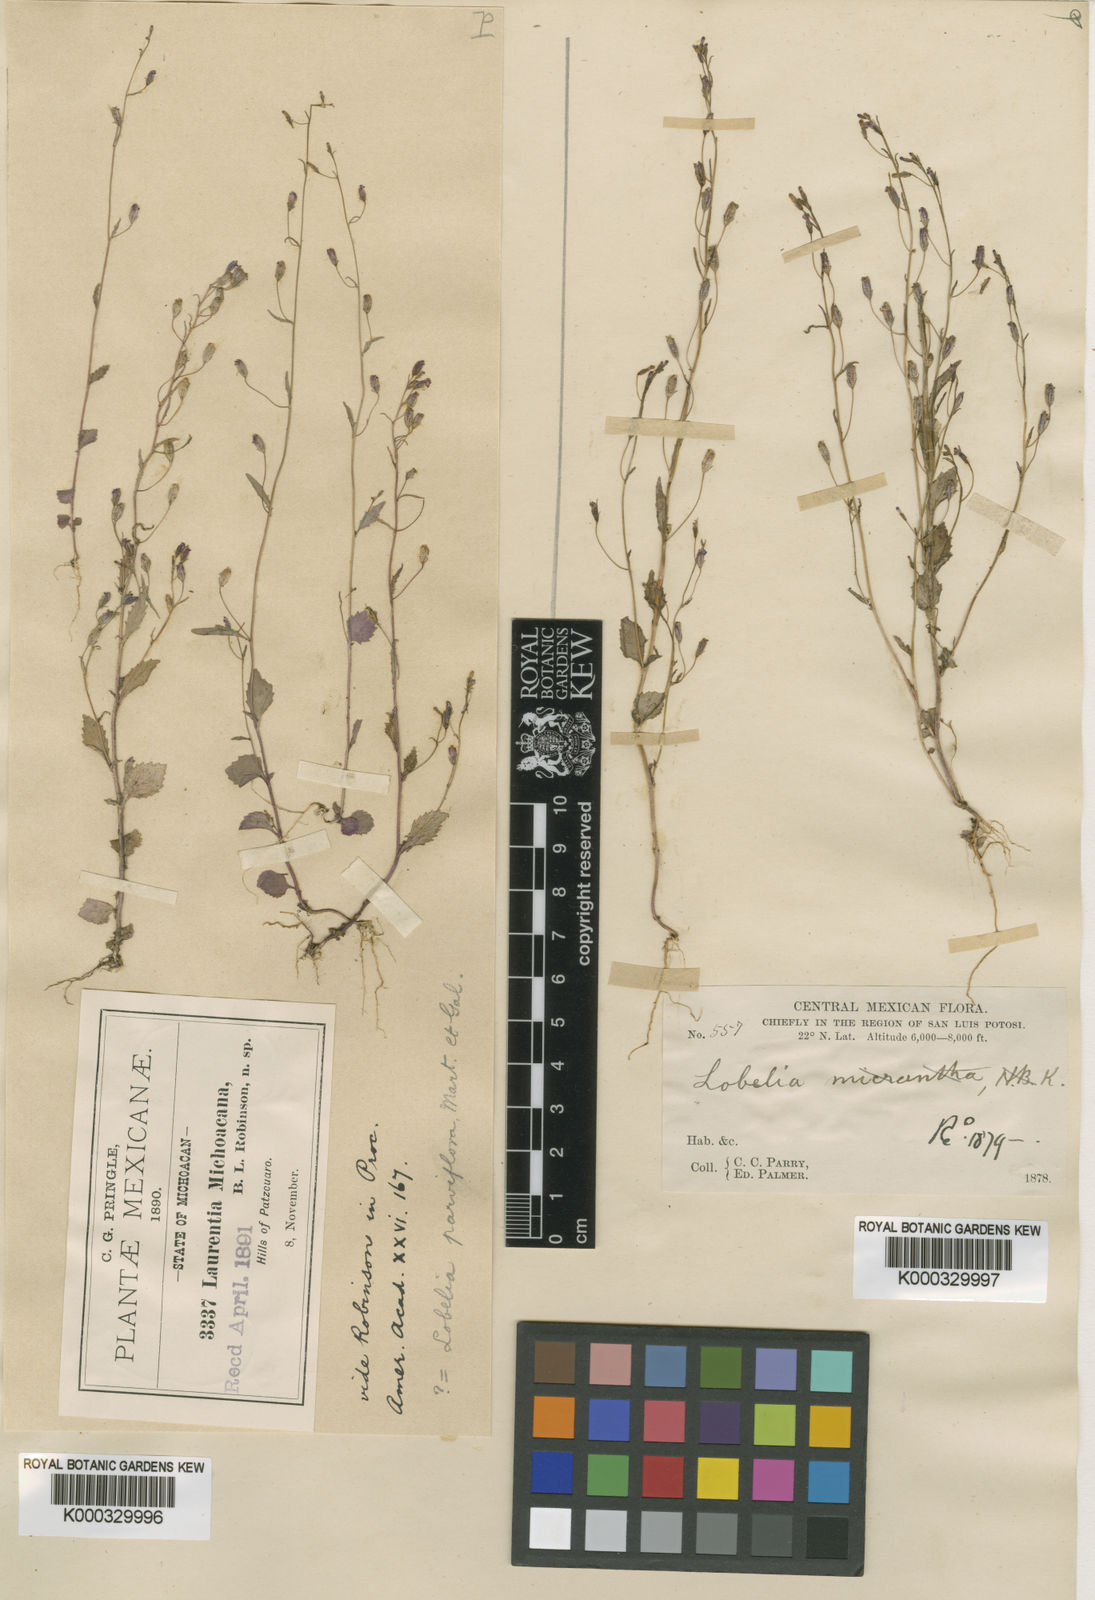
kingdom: Plantae
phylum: Tracheophyta
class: Magnoliopsida
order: Asterales
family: Campanulaceae
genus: Diastatea
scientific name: Diastatea
